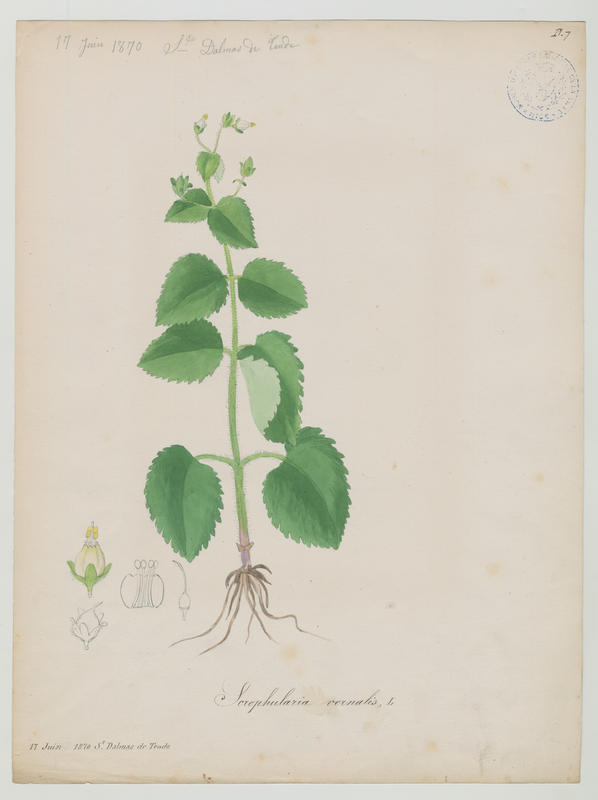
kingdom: Plantae
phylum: Tracheophyta
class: Magnoliopsida
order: Lamiales
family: Scrophulariaceae
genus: Scrophularia
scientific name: Scrophularia vernalis
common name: Yellow figwort
